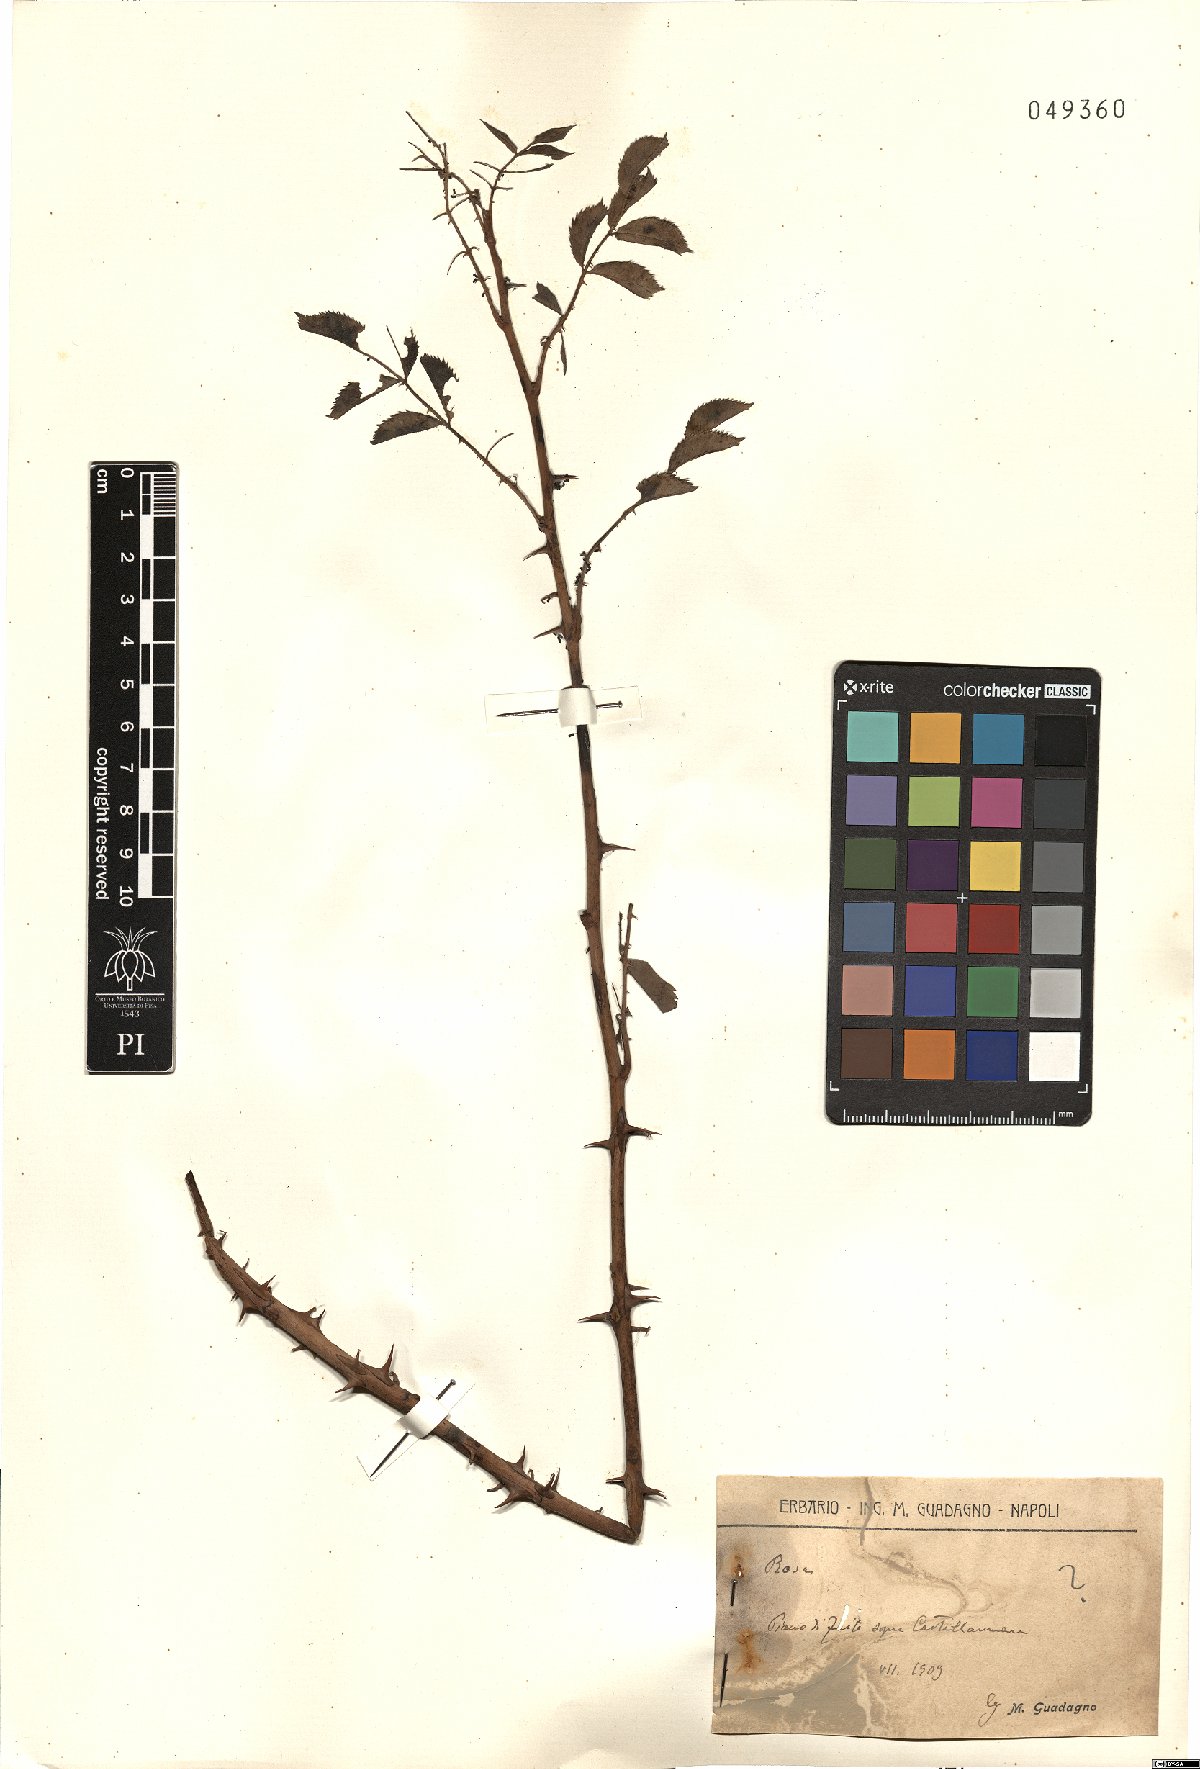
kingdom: Plantae
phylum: Tracheophyta
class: Magnoliopsida
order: Rosales
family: Rosaceae
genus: Rosa
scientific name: Rosa
